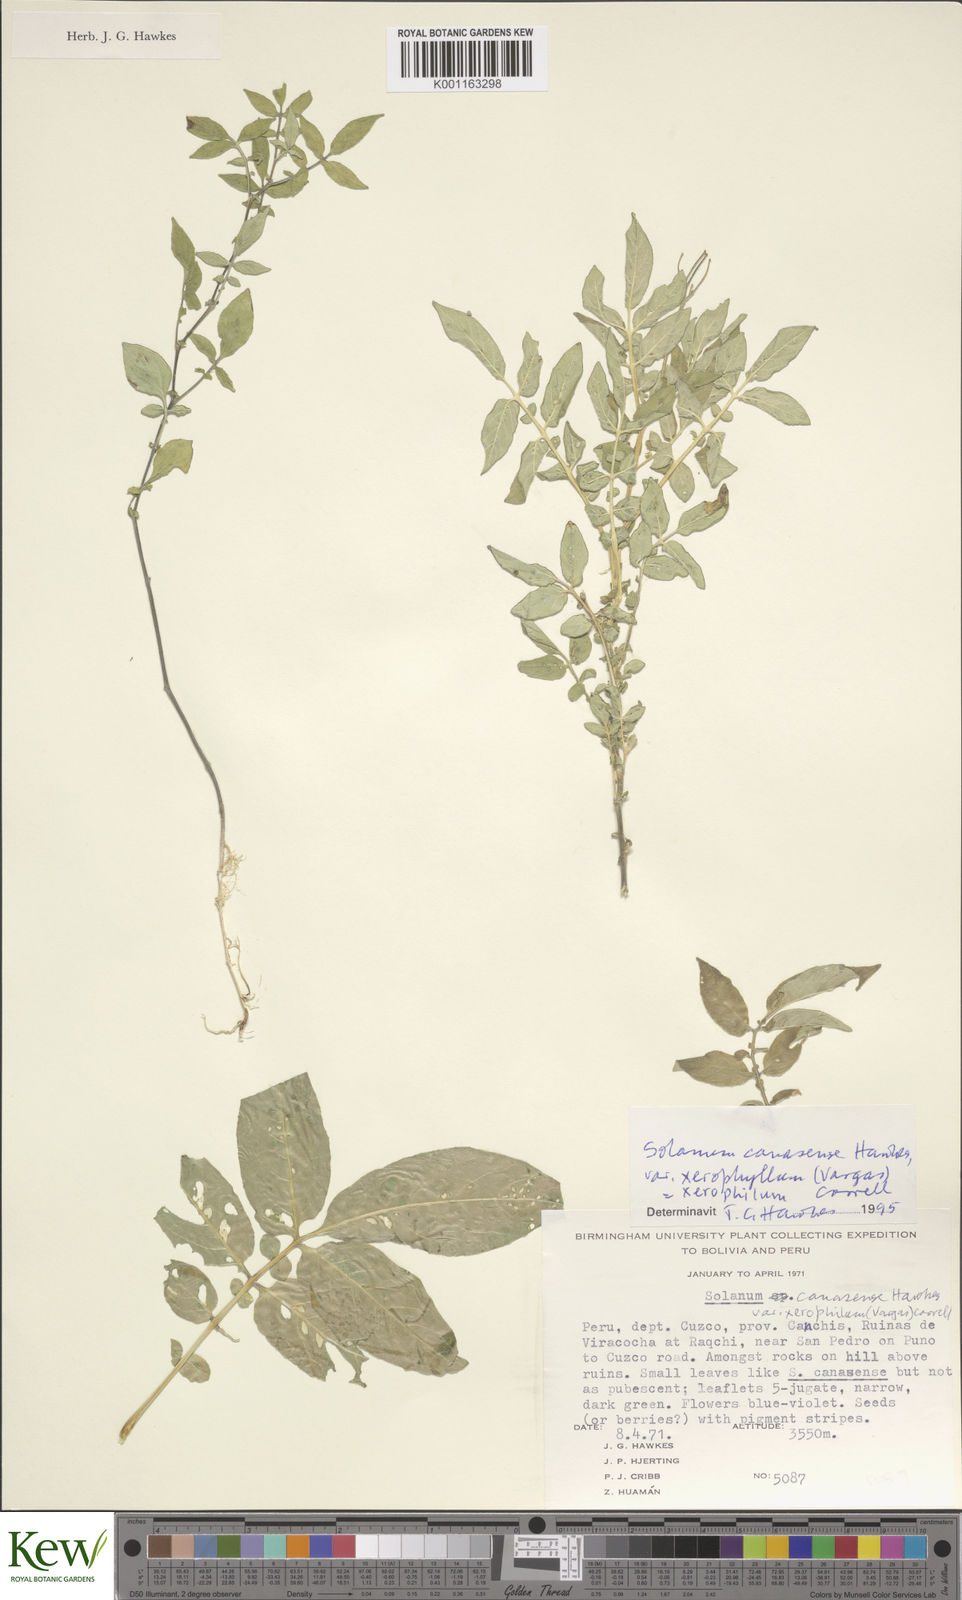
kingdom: Plantae
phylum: Tracheophyta
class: Magnoliopsida
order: Solanales
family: Solanaceae
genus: Solanum
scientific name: Solanum candolleanum
